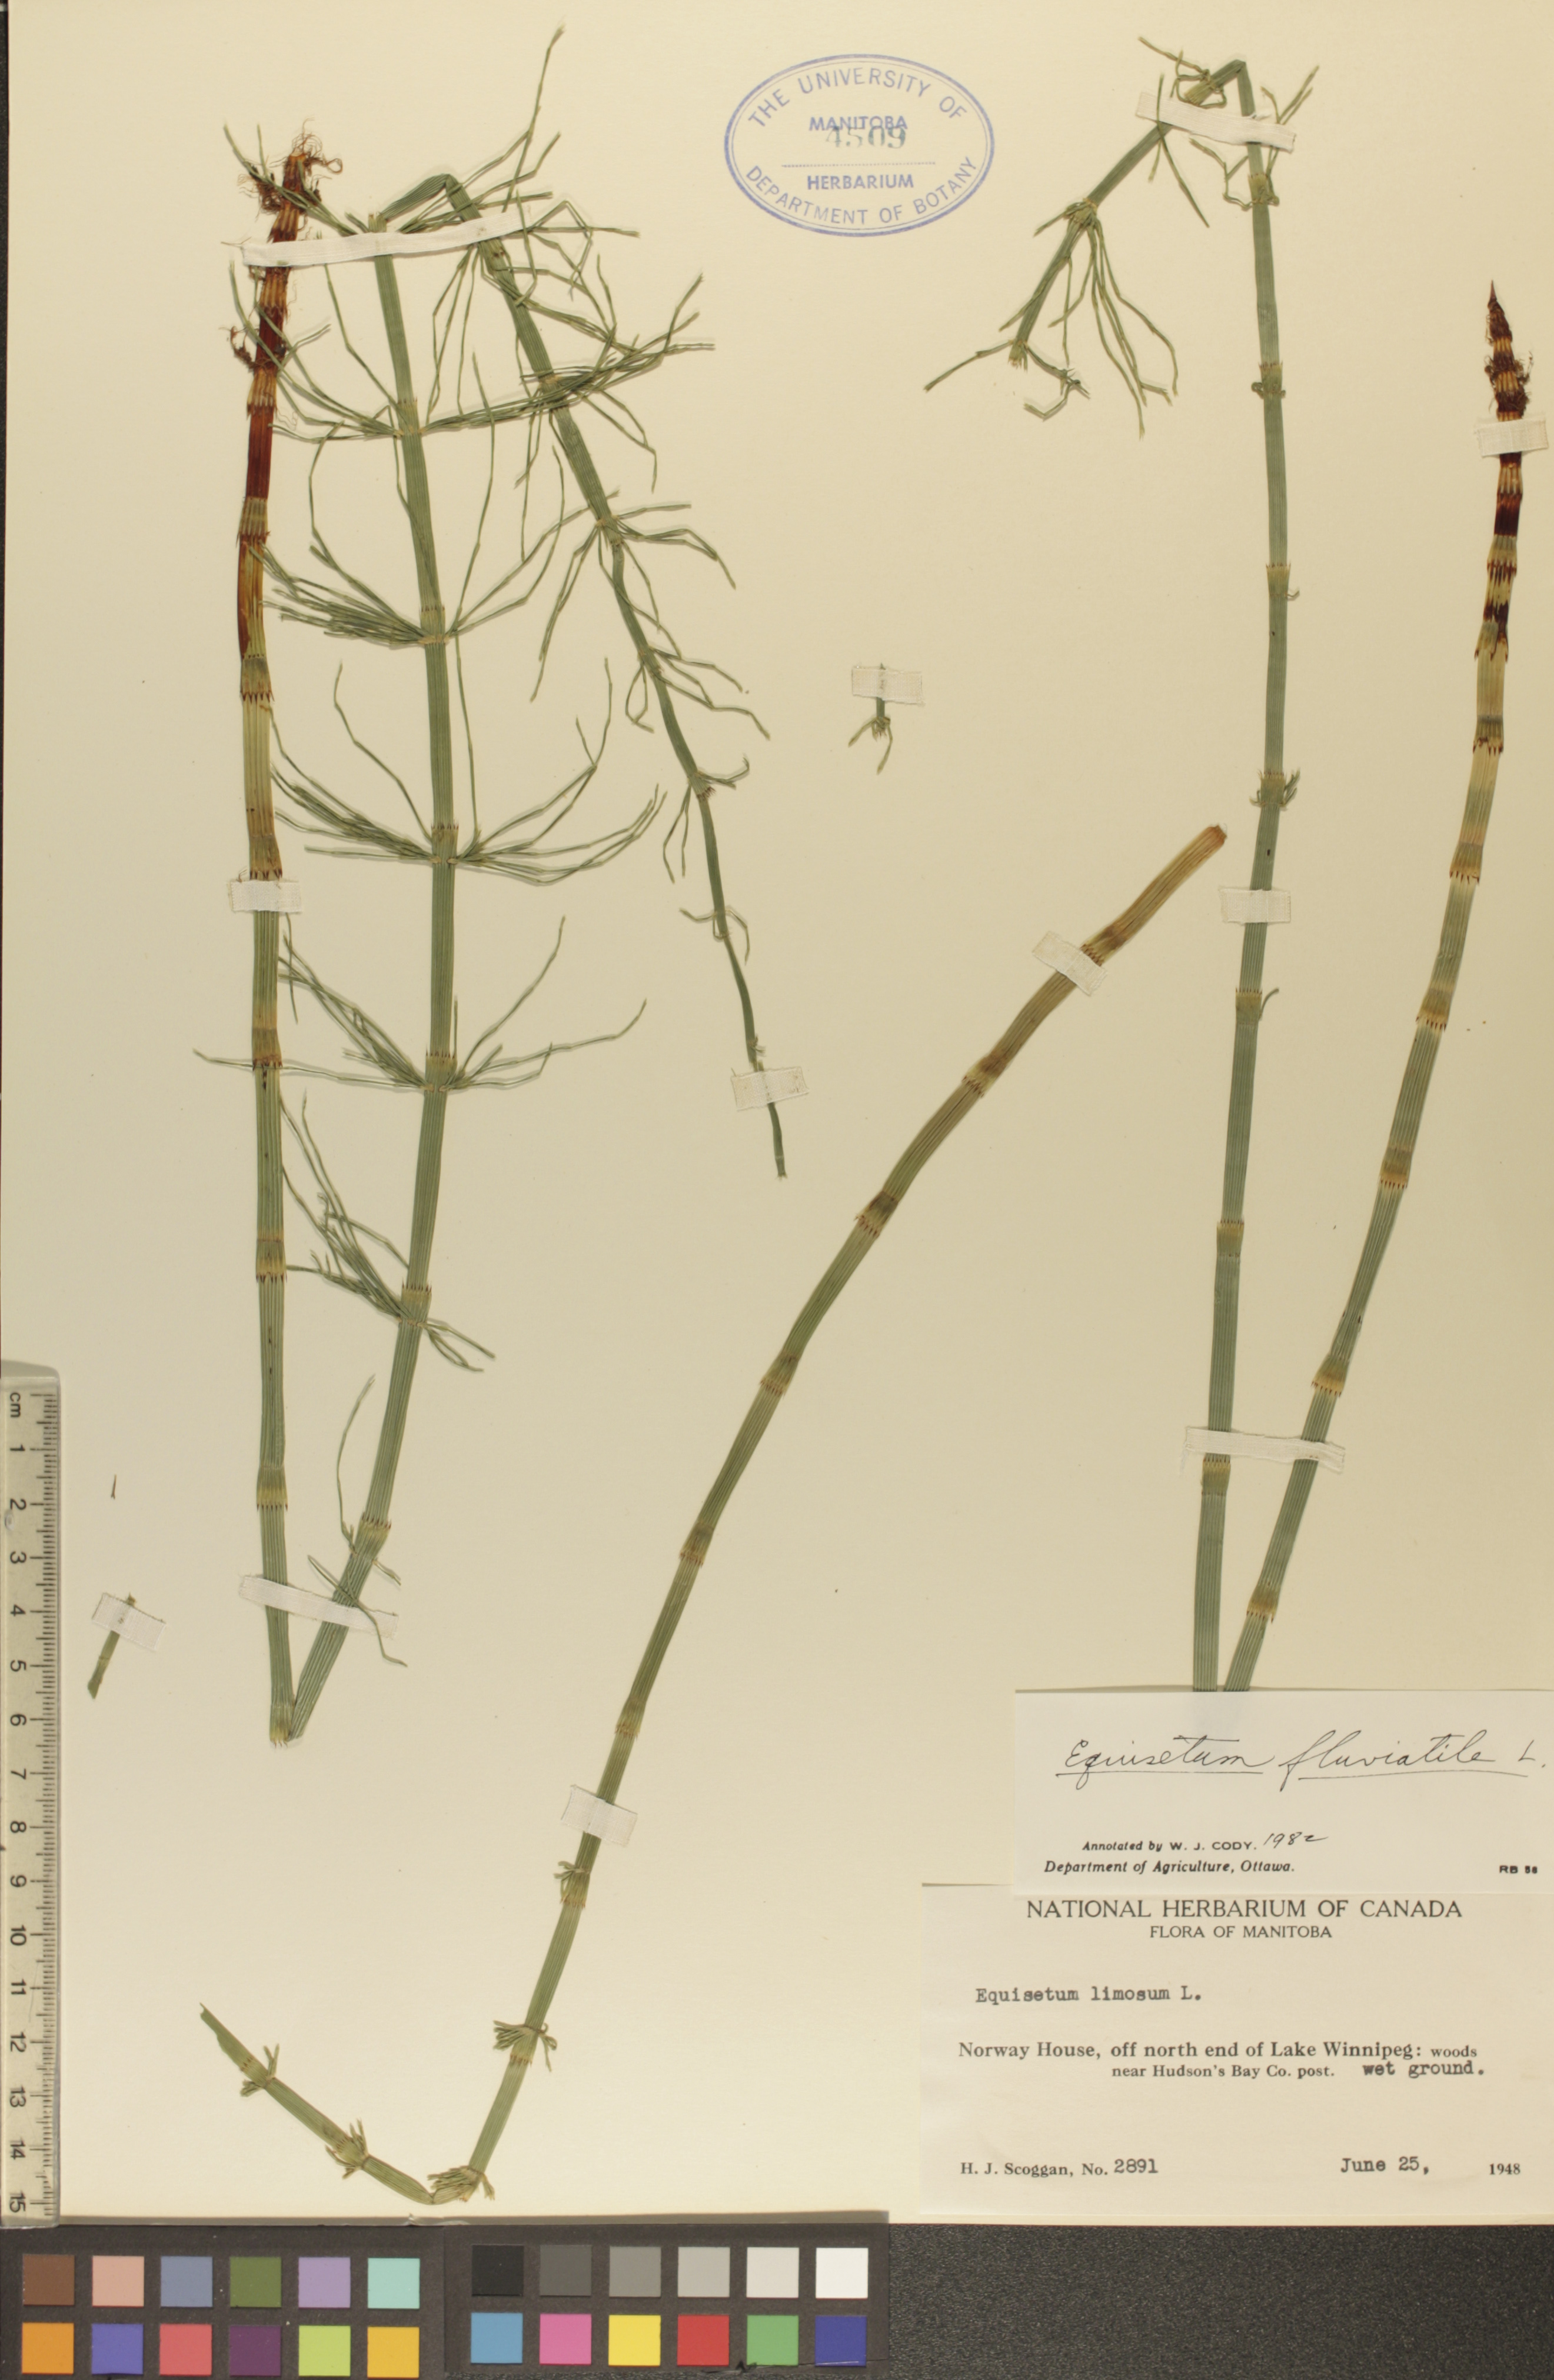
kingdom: Plantae
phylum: Tracheophyta
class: Polypodiopsida
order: Equisetales
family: Equisetaceae
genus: Equisetum
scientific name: Equisetum fluviatile
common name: Water horsetail
